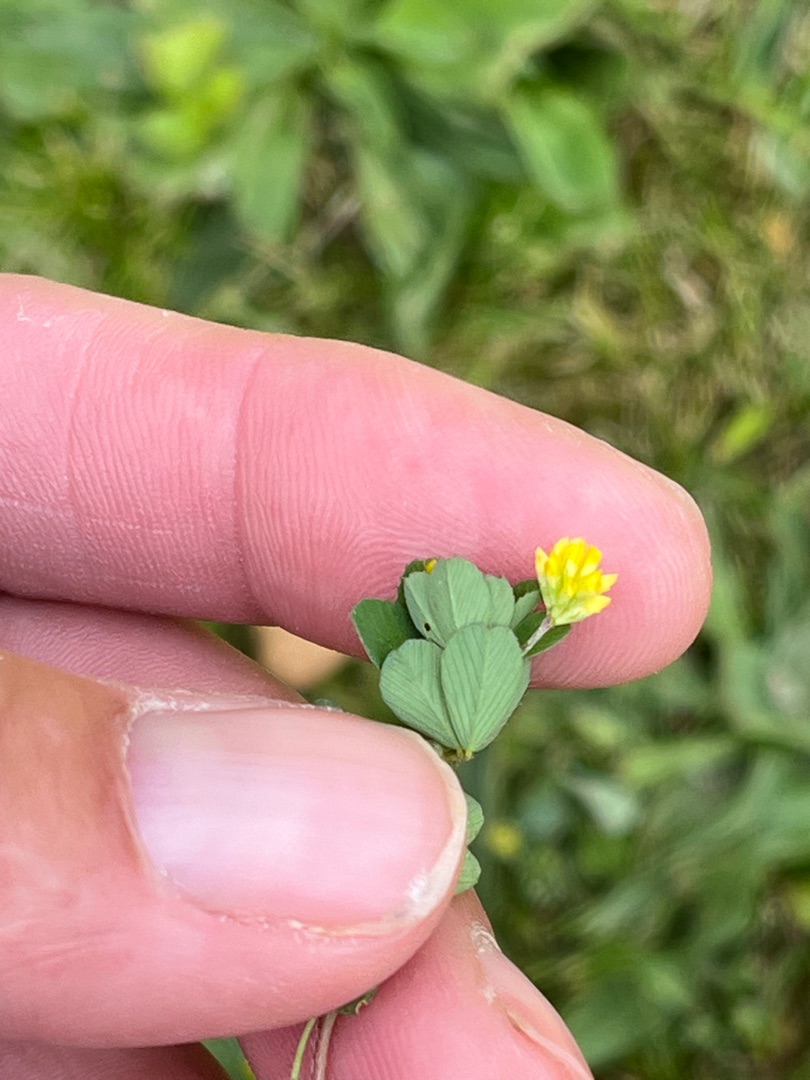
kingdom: Plantae
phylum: Tracheophyta
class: Magnoliopsida
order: Fabales
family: Fabaceae
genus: Trifolium
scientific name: Trifolium dubium
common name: Fin kløver
